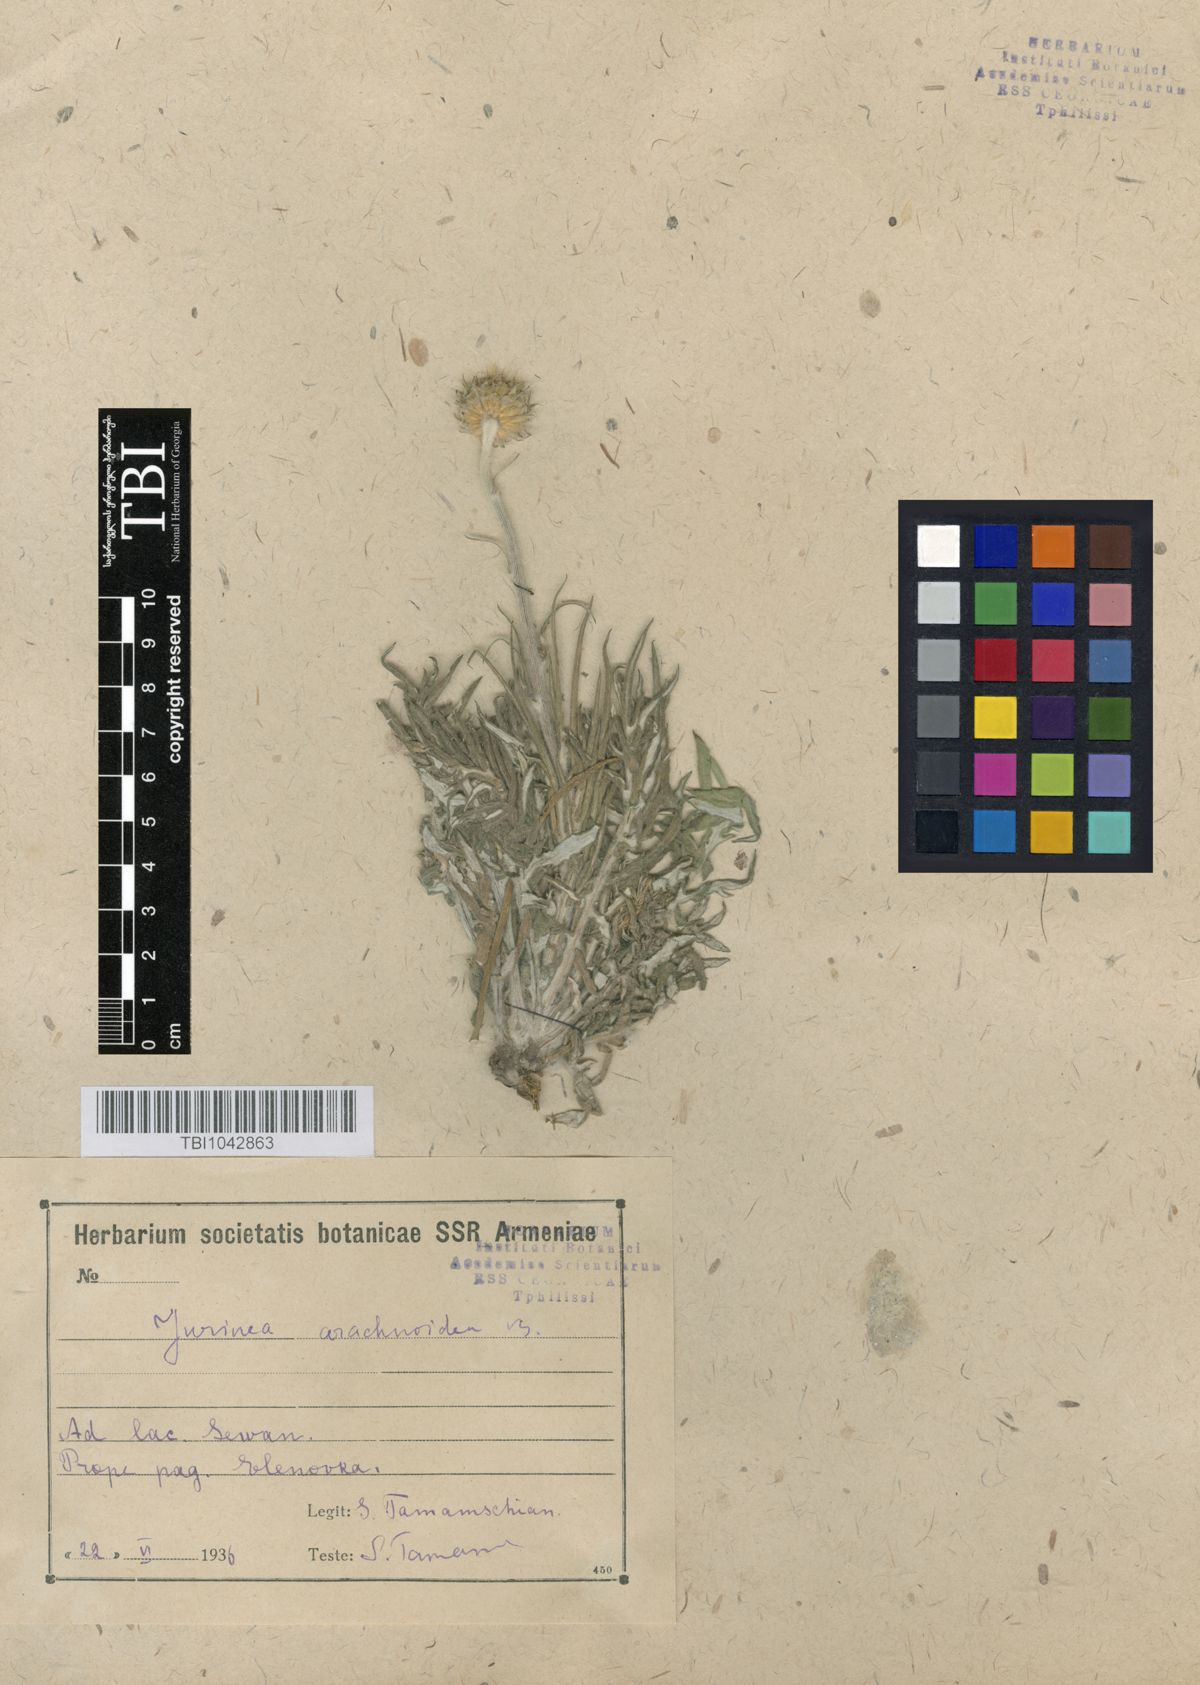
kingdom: Plantae
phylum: Tracheophyta
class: Magnoliopsida
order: Asterales
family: Asteraceae
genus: Jurinea
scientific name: Jurinea blanda
